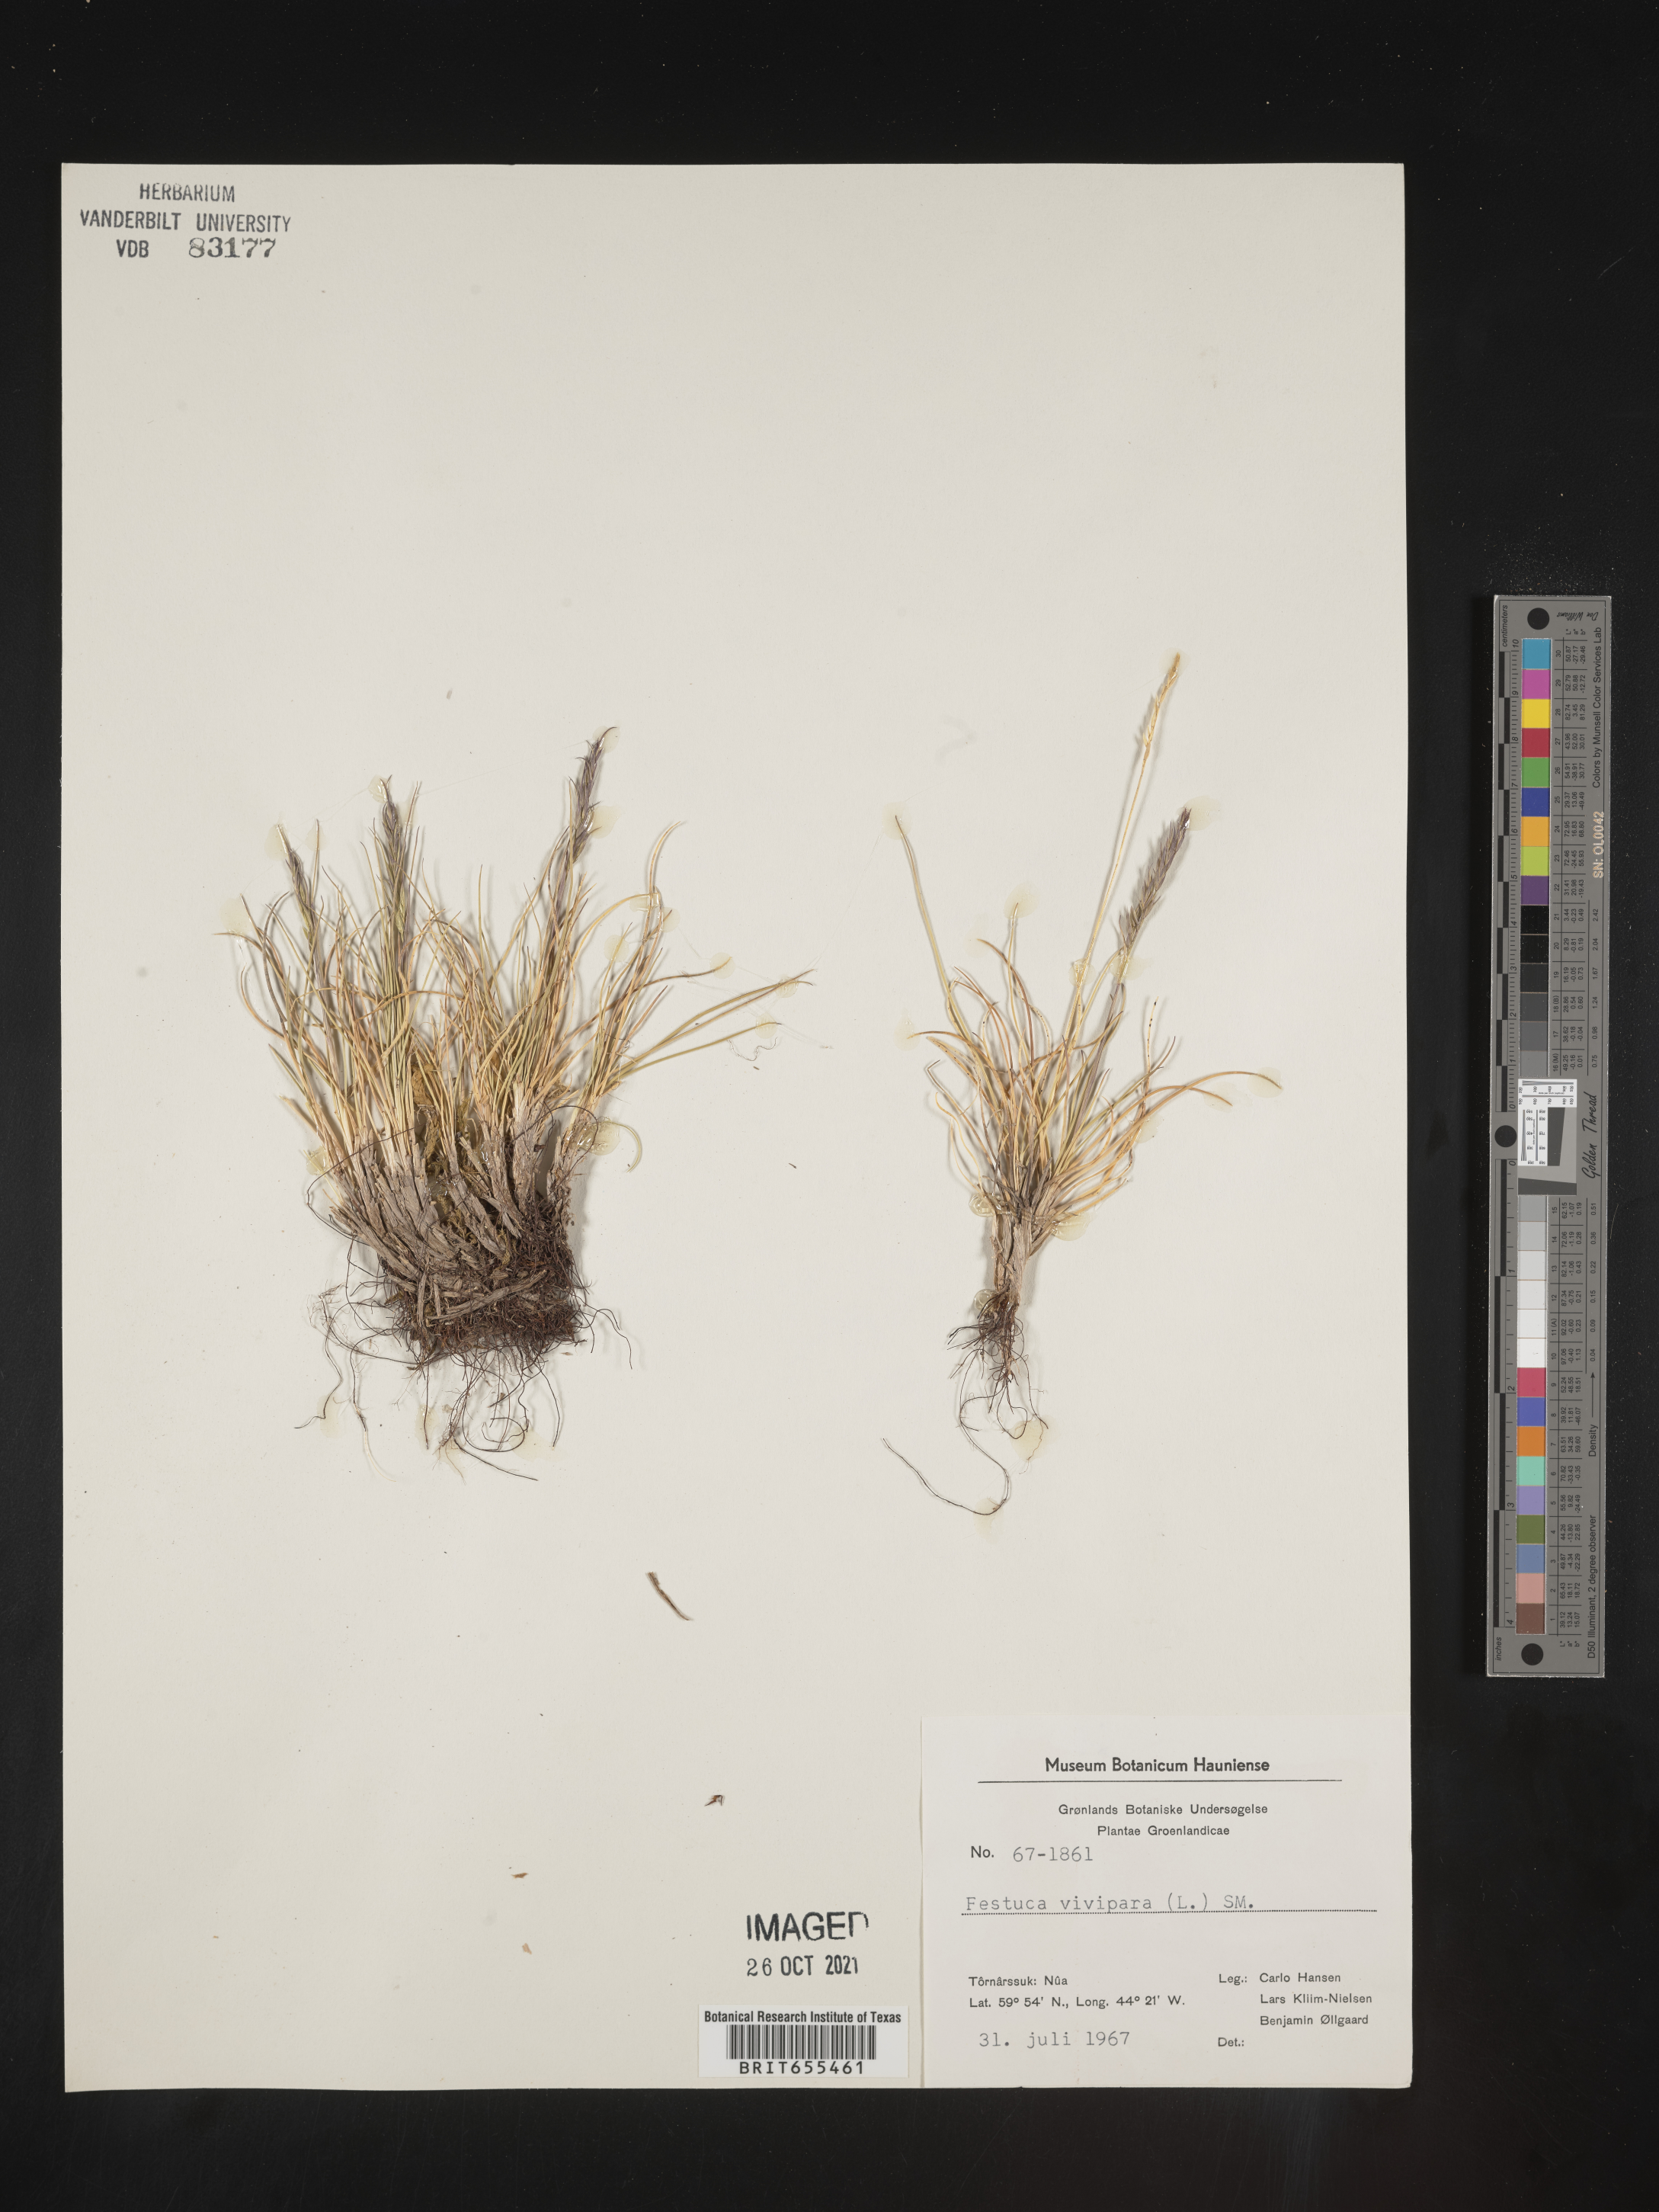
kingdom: Plantae
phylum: Tracheophyta
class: Liliopsida
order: Poales
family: Poaceae
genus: Festuca
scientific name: Festuca
